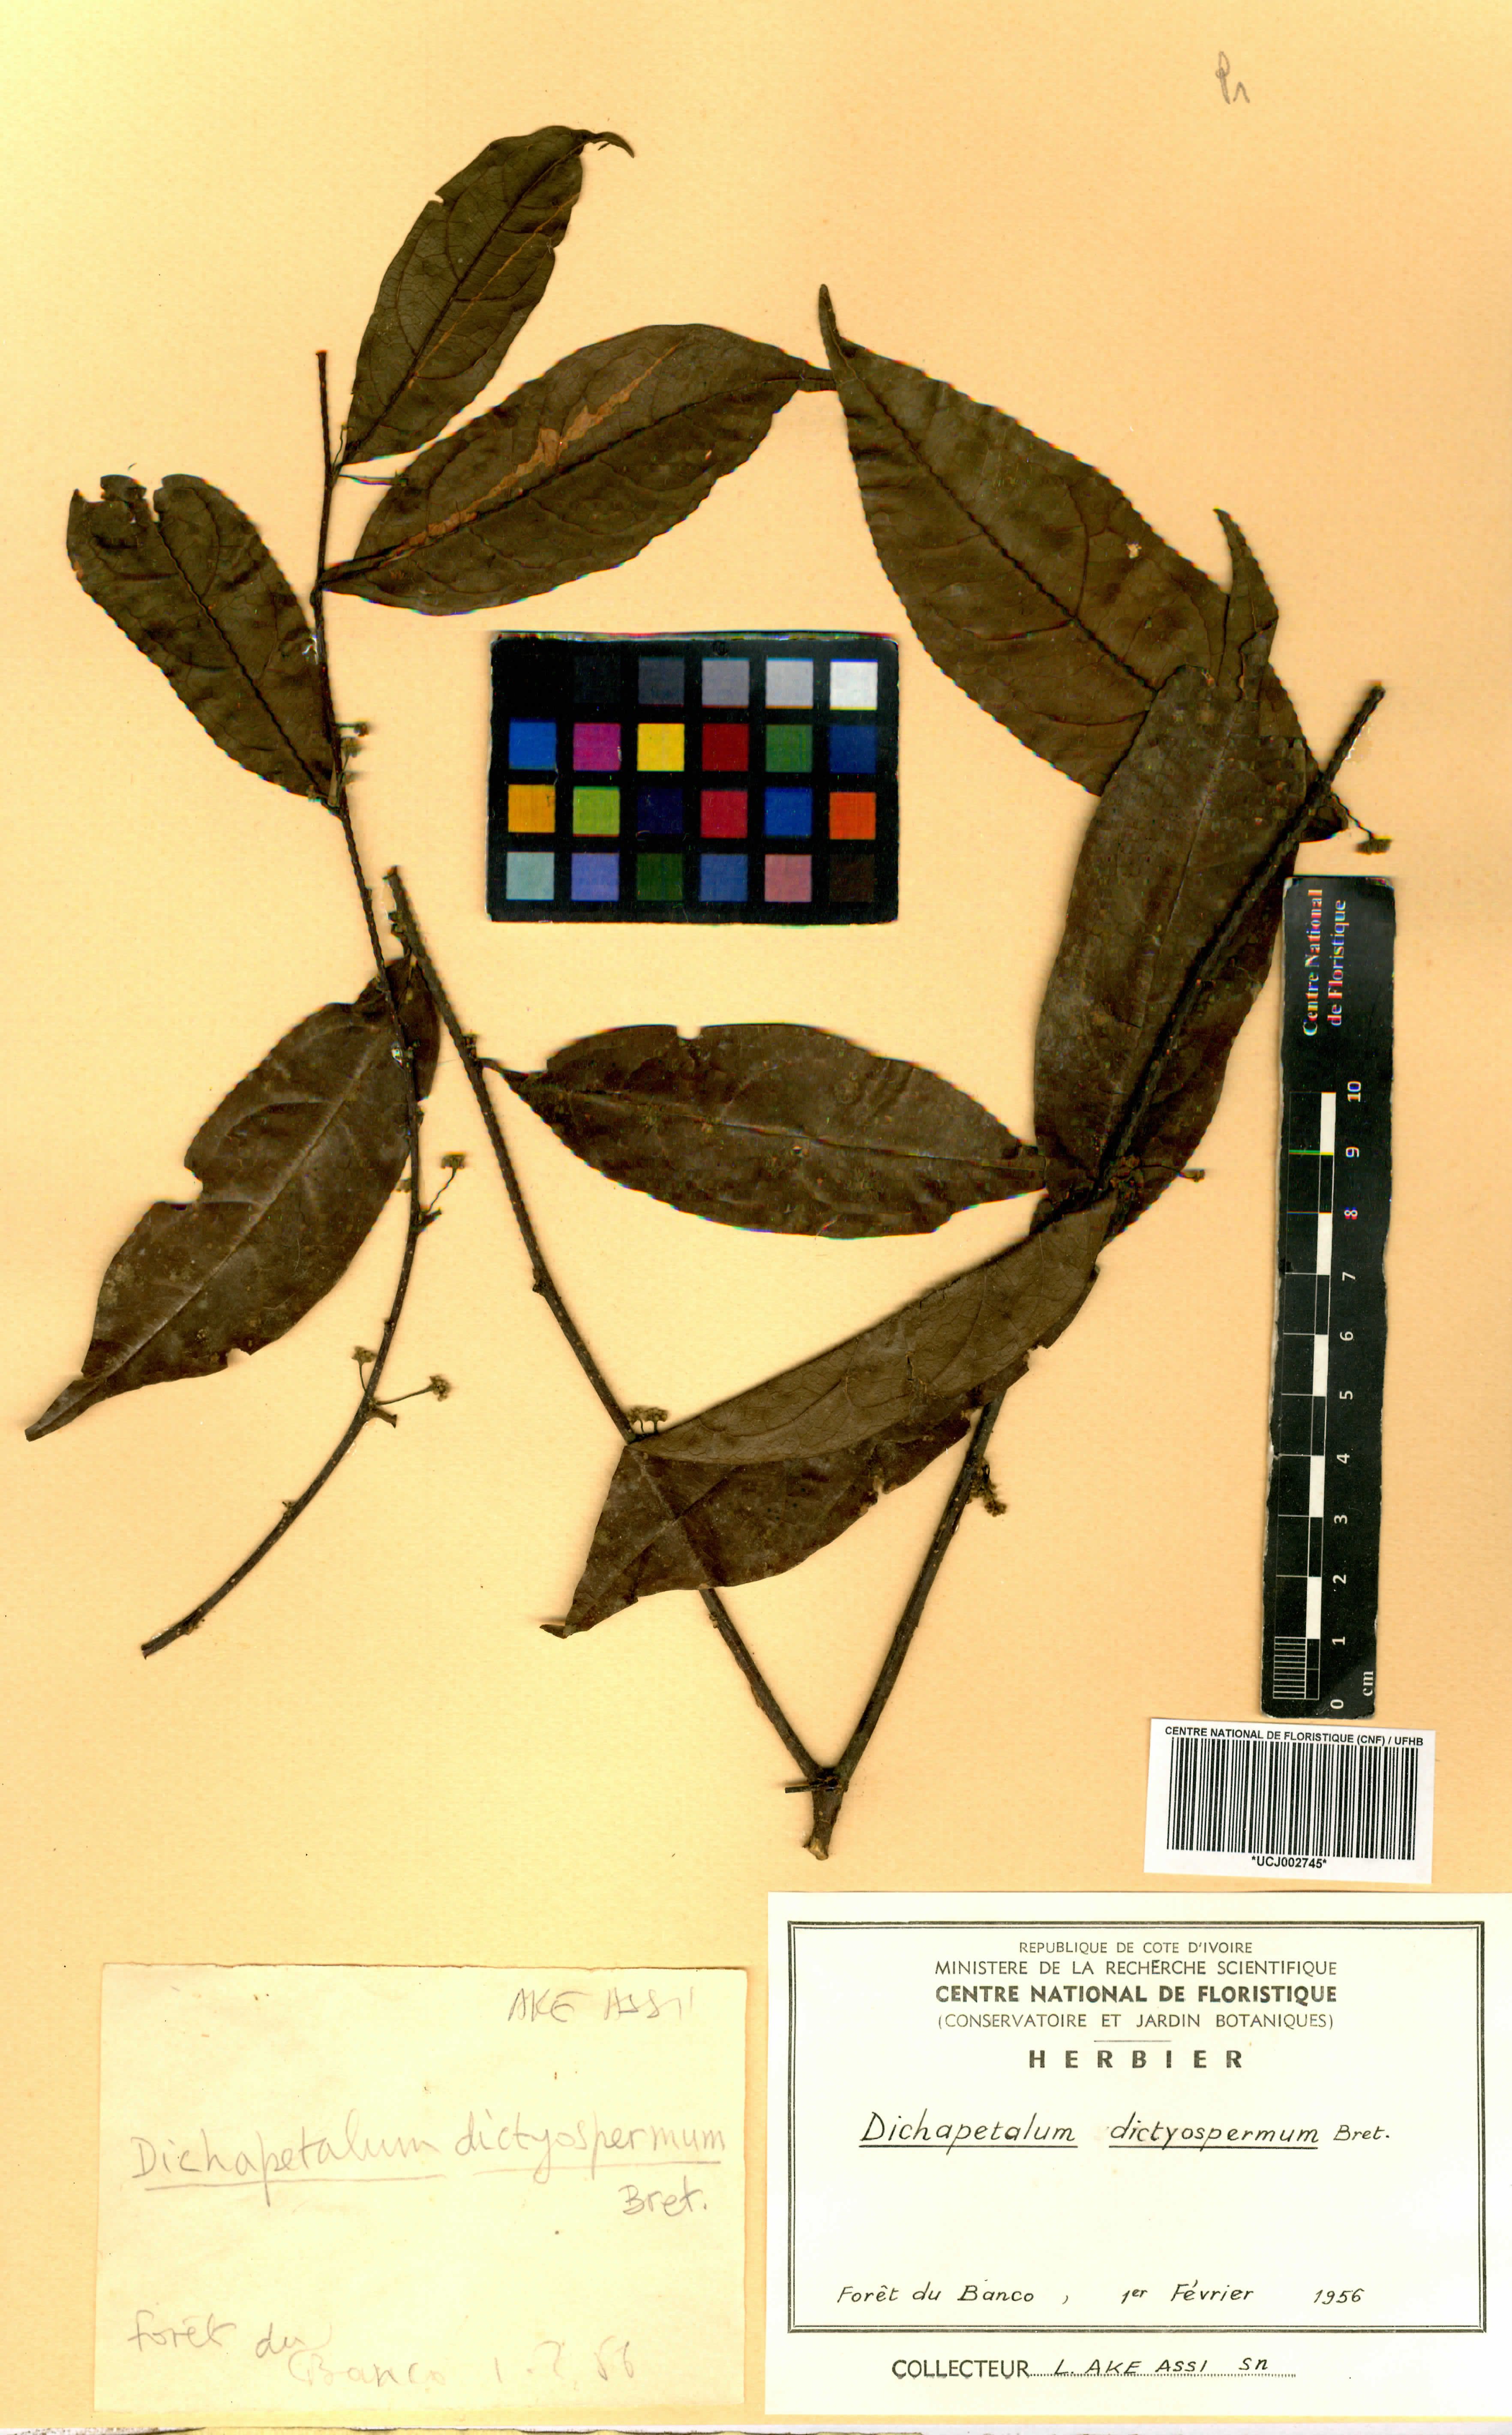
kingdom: Plantae
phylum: Tracheophyta
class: Magnoliopsida
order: Malpighiales
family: Dichapetalaceae
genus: Dichapetalum
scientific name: Dichapetalum dictyospermum
